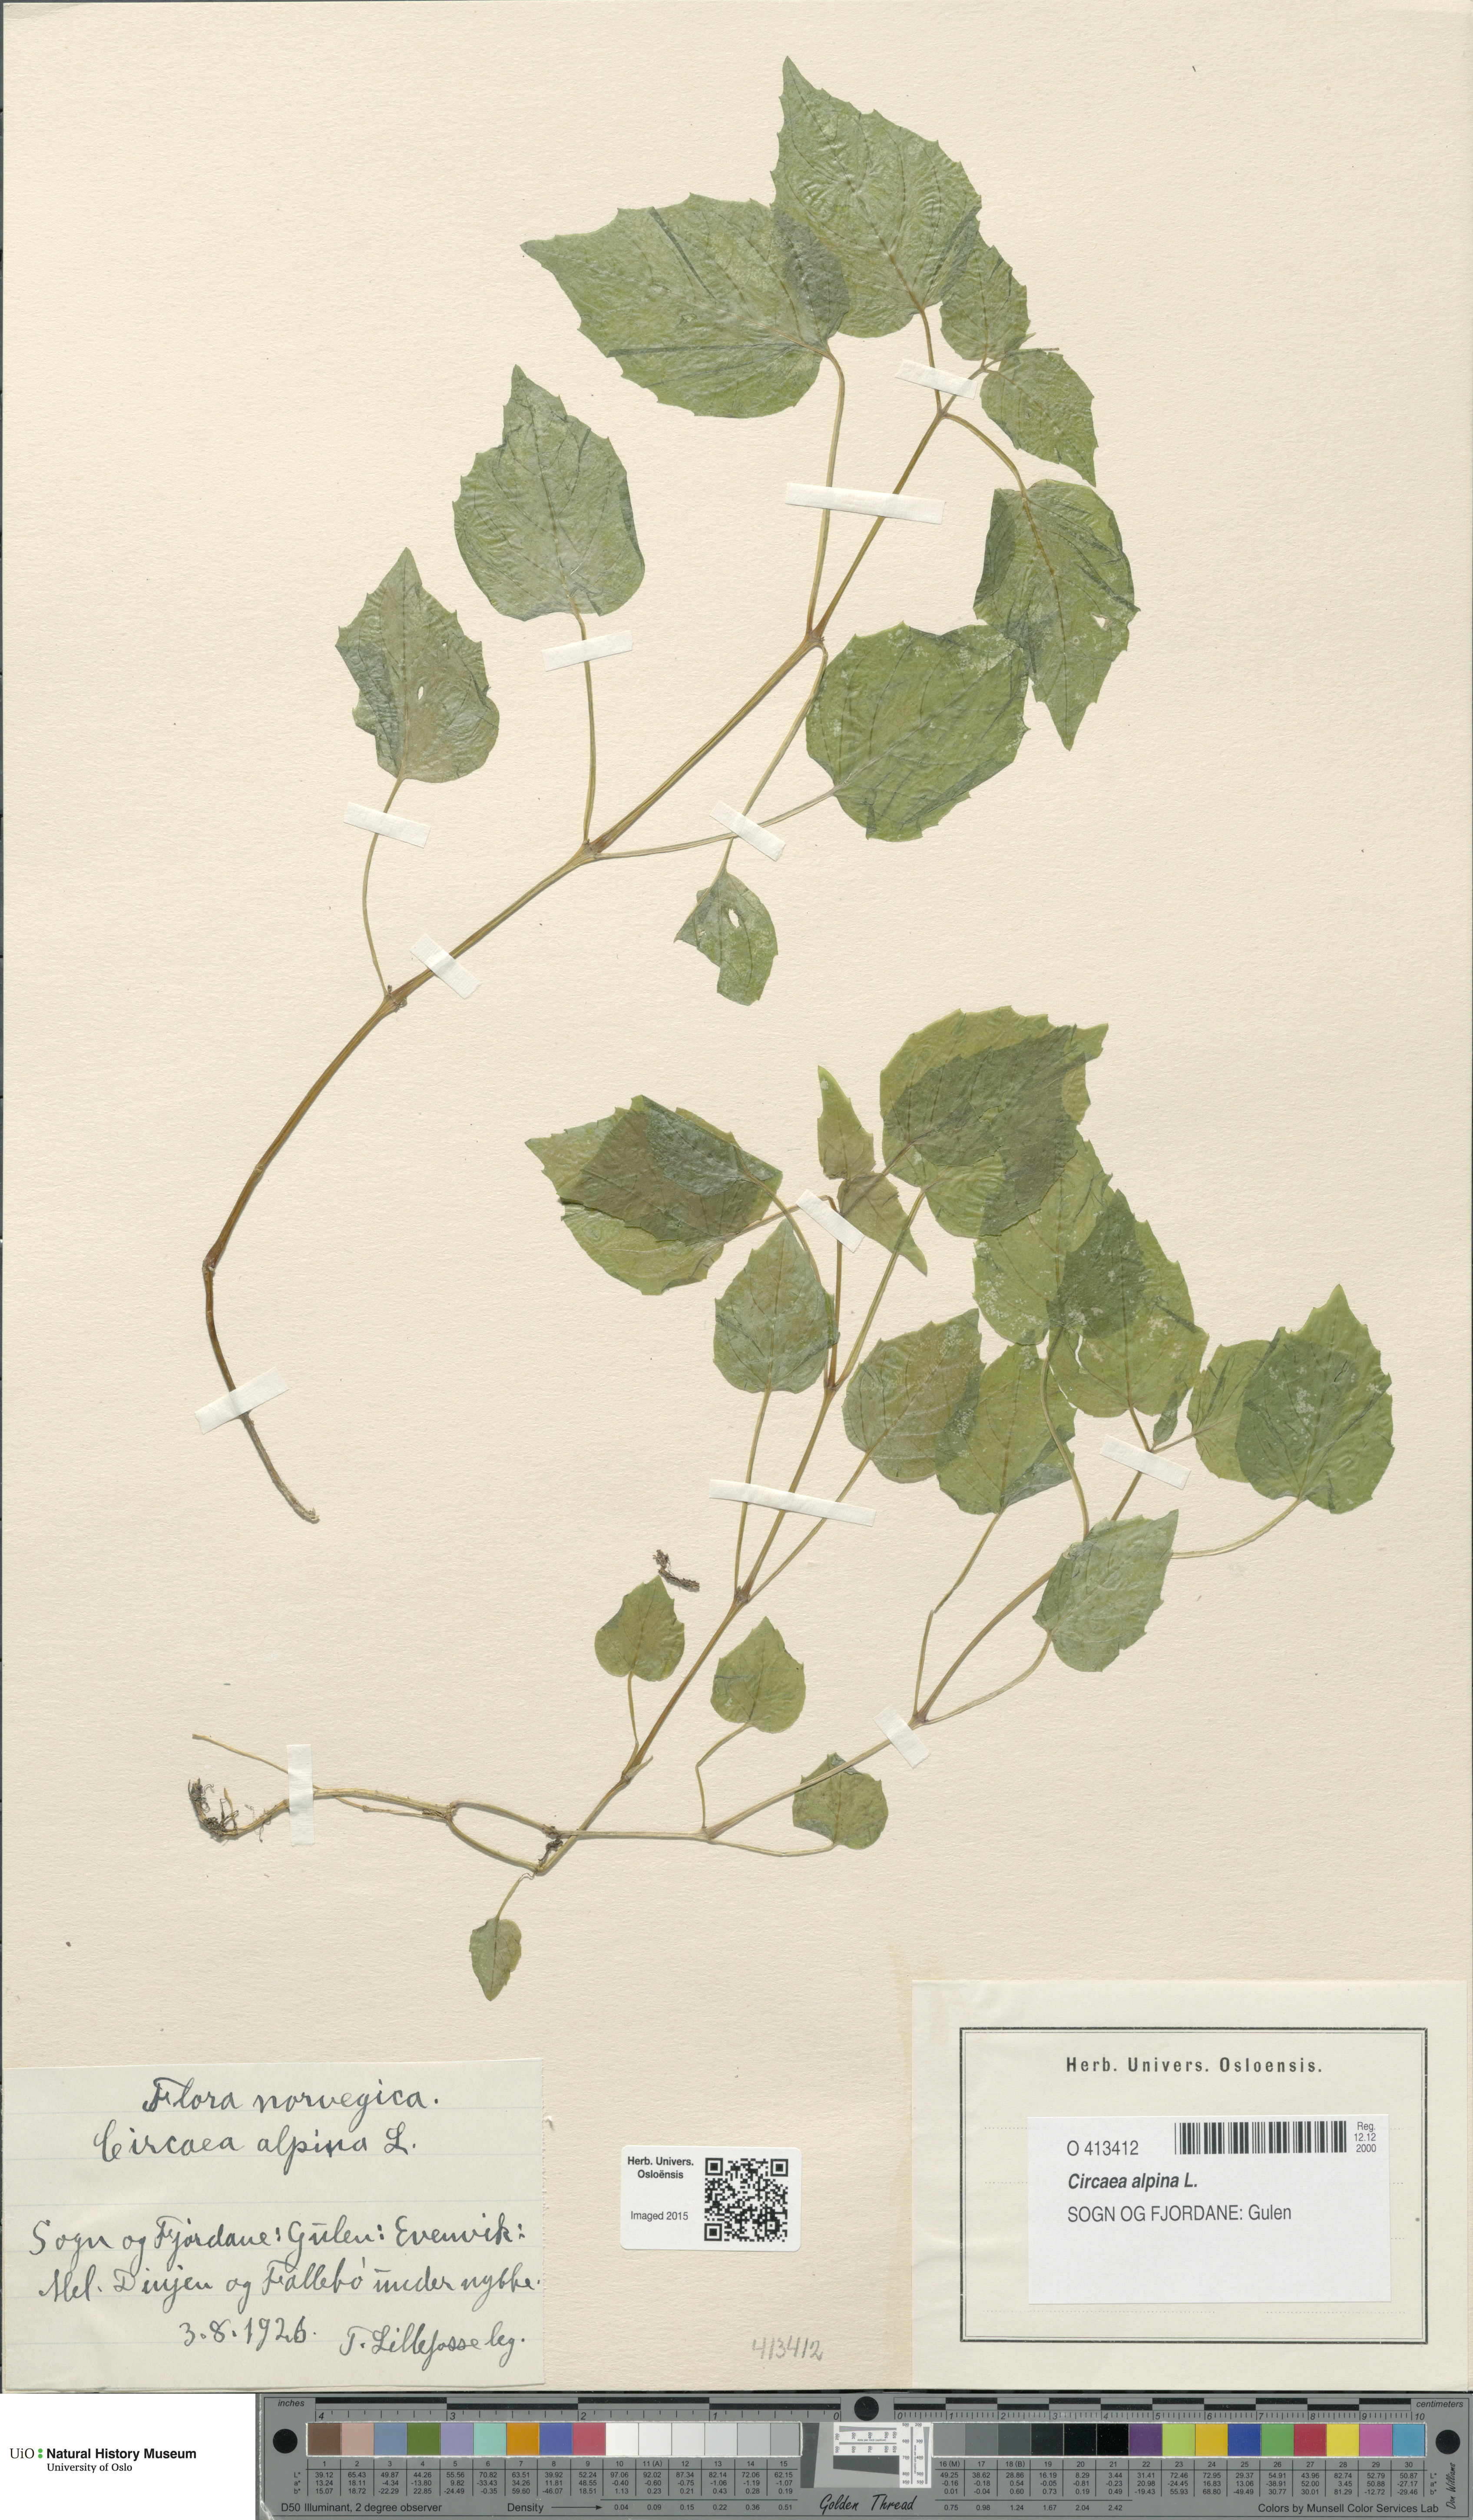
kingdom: Plantae
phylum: Tracheophyta
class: Magnoliopsida
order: Myrtales
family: Onagraceae
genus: Circaea
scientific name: Circaea alpina
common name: Alpine enchanter's-nightshade
